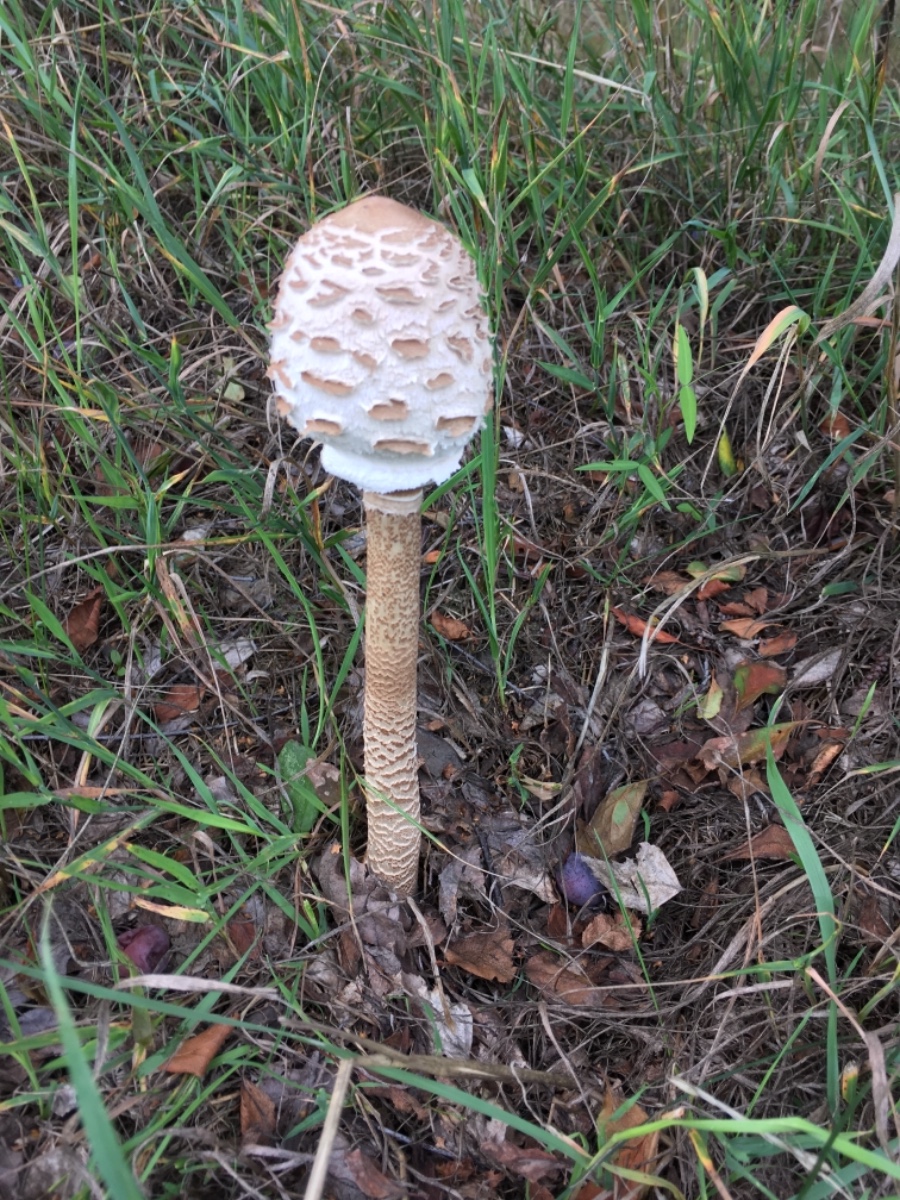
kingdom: Fungi
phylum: Basidiomycota
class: Agaricomycetes
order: Agaricales
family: Agaricaceae
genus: Macrolepiota
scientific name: Macrolepiota procera
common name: stor kæmpeparasolhat
